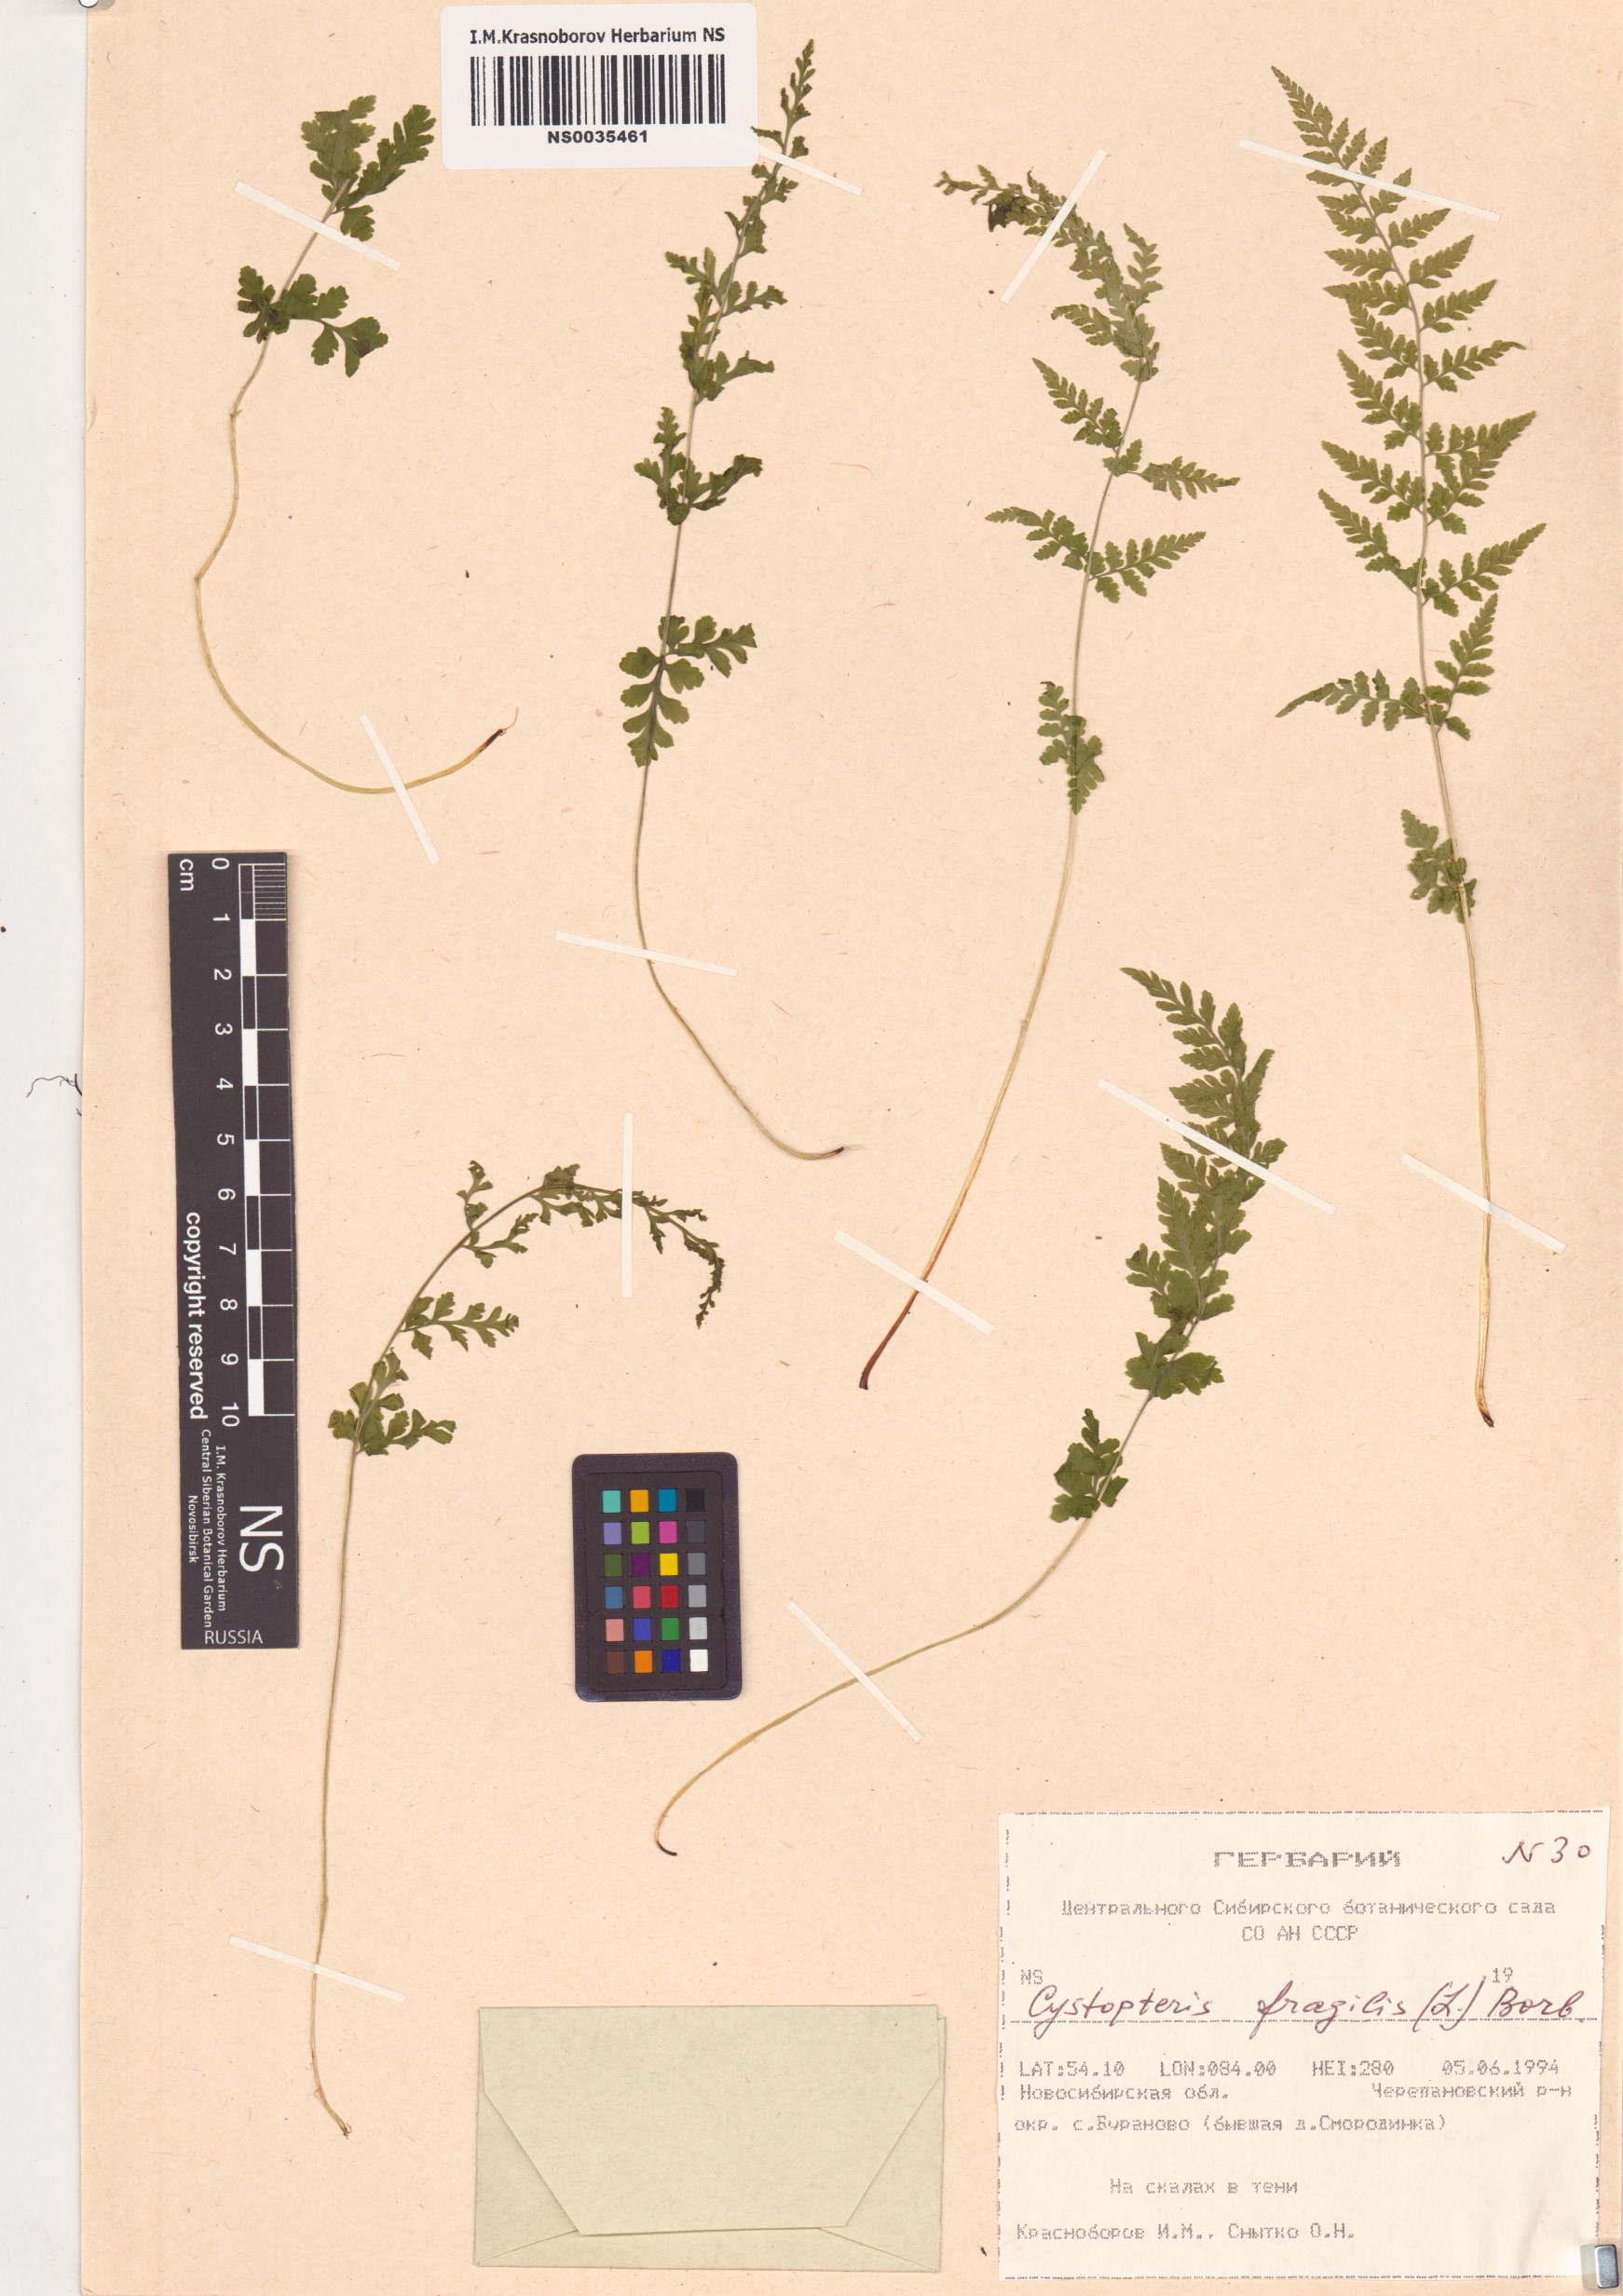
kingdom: Plantae
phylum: Tracheophyta
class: Polypodiopsida
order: Polypodiales
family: Cystopteridaceae
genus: Cystopteris
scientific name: Cystopteris fragilis
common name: Brittle bladder fern
